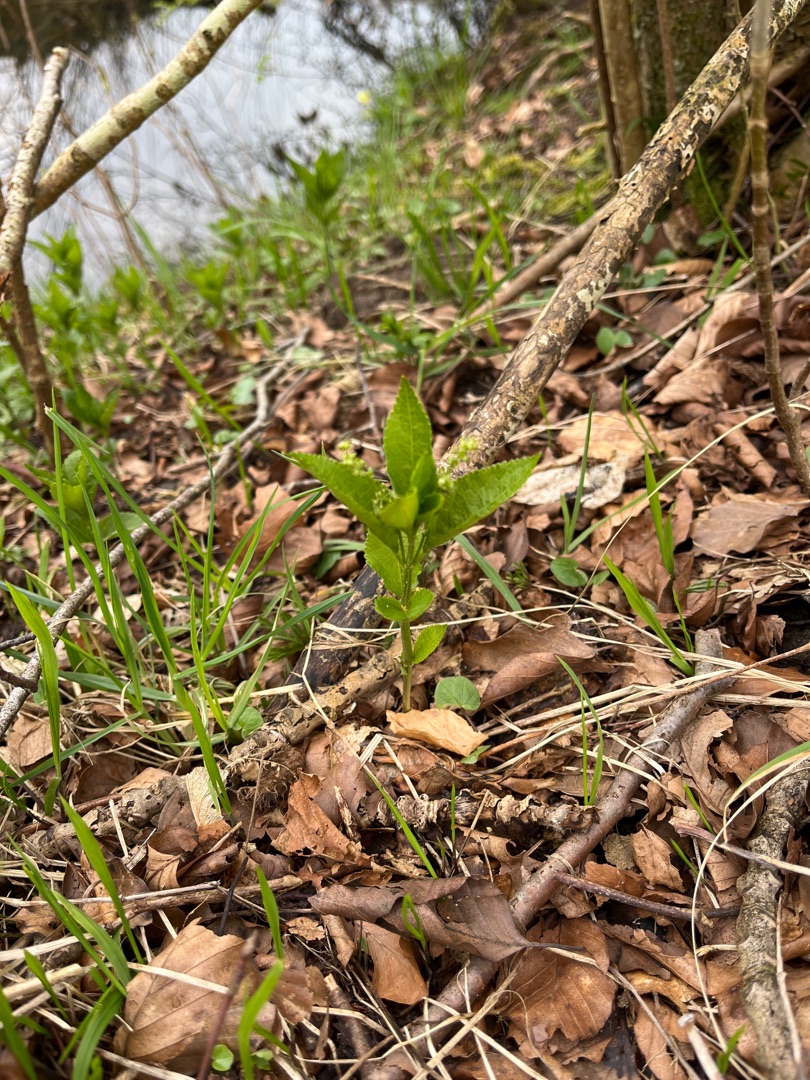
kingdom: Plantae
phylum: Tracheophyta
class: Magnoliopsida
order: Malpighiales
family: Euphorbiaceae
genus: Mercurialis
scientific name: Mercurialis perennis
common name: Almindelig bingelurt
